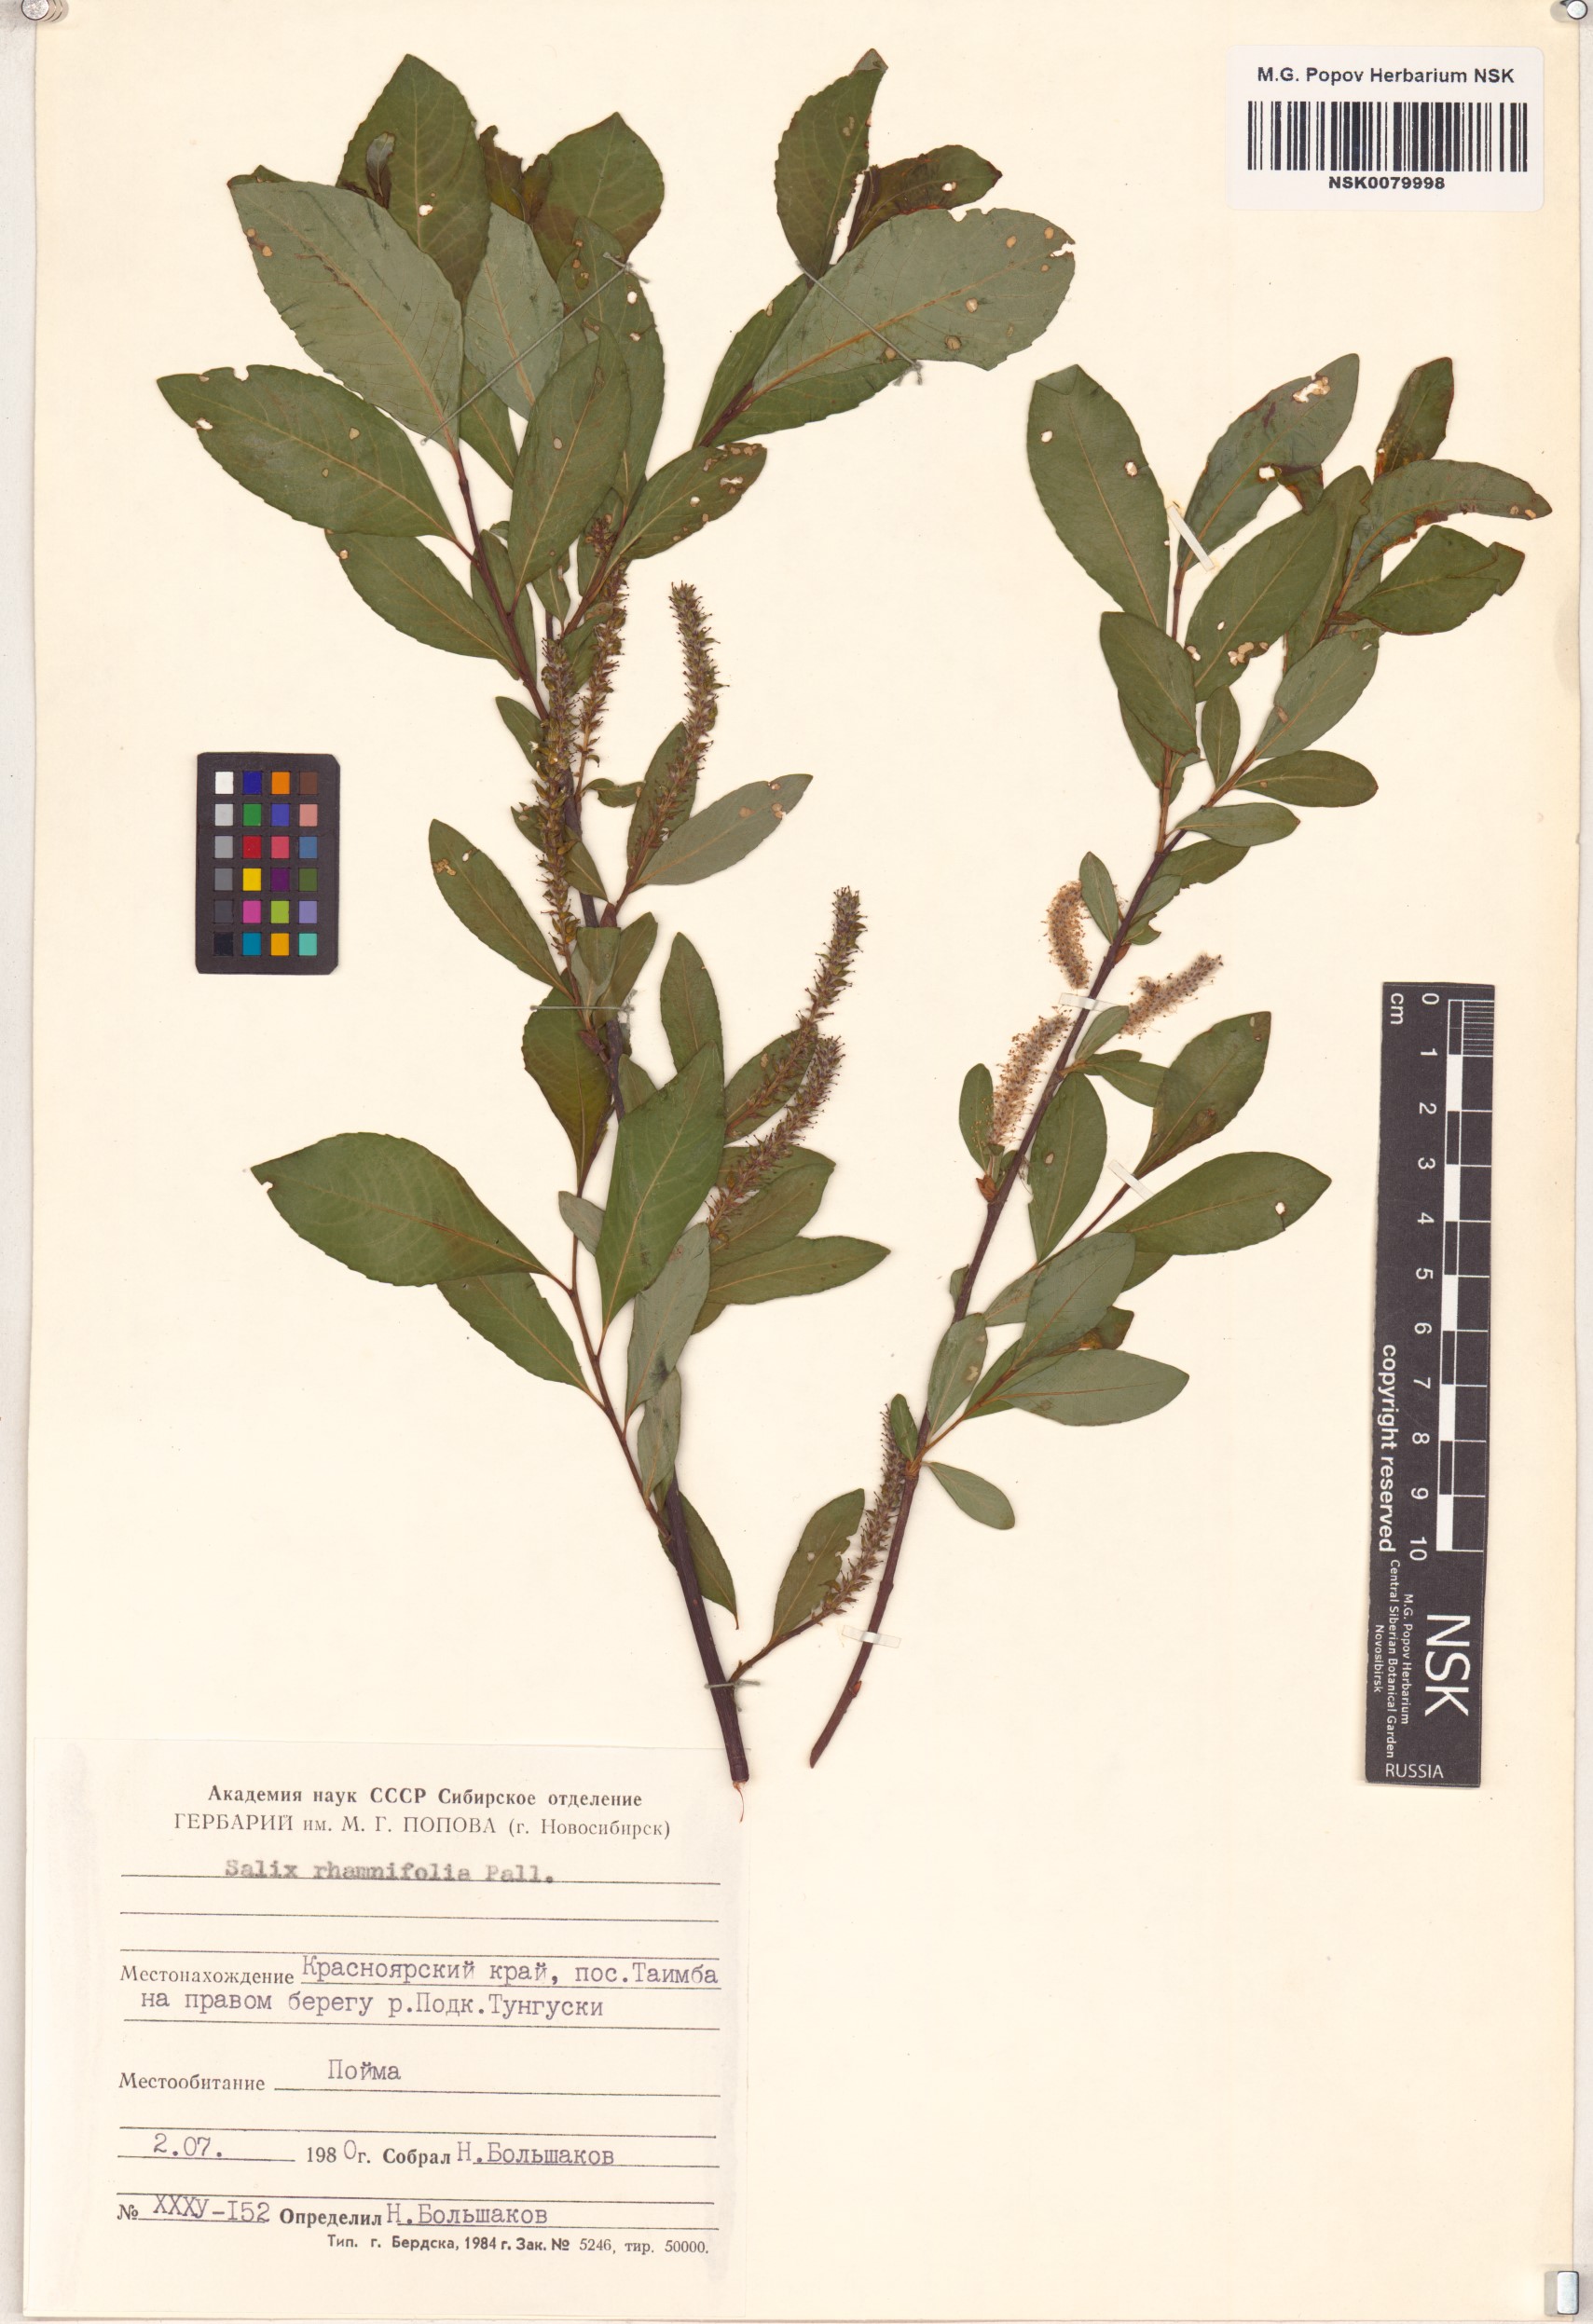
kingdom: Plantae
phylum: Tracheophyta
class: Magnoliopsida
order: Malpighiales
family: Salicaceae
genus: Salix
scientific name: Salix rhamnifolia
